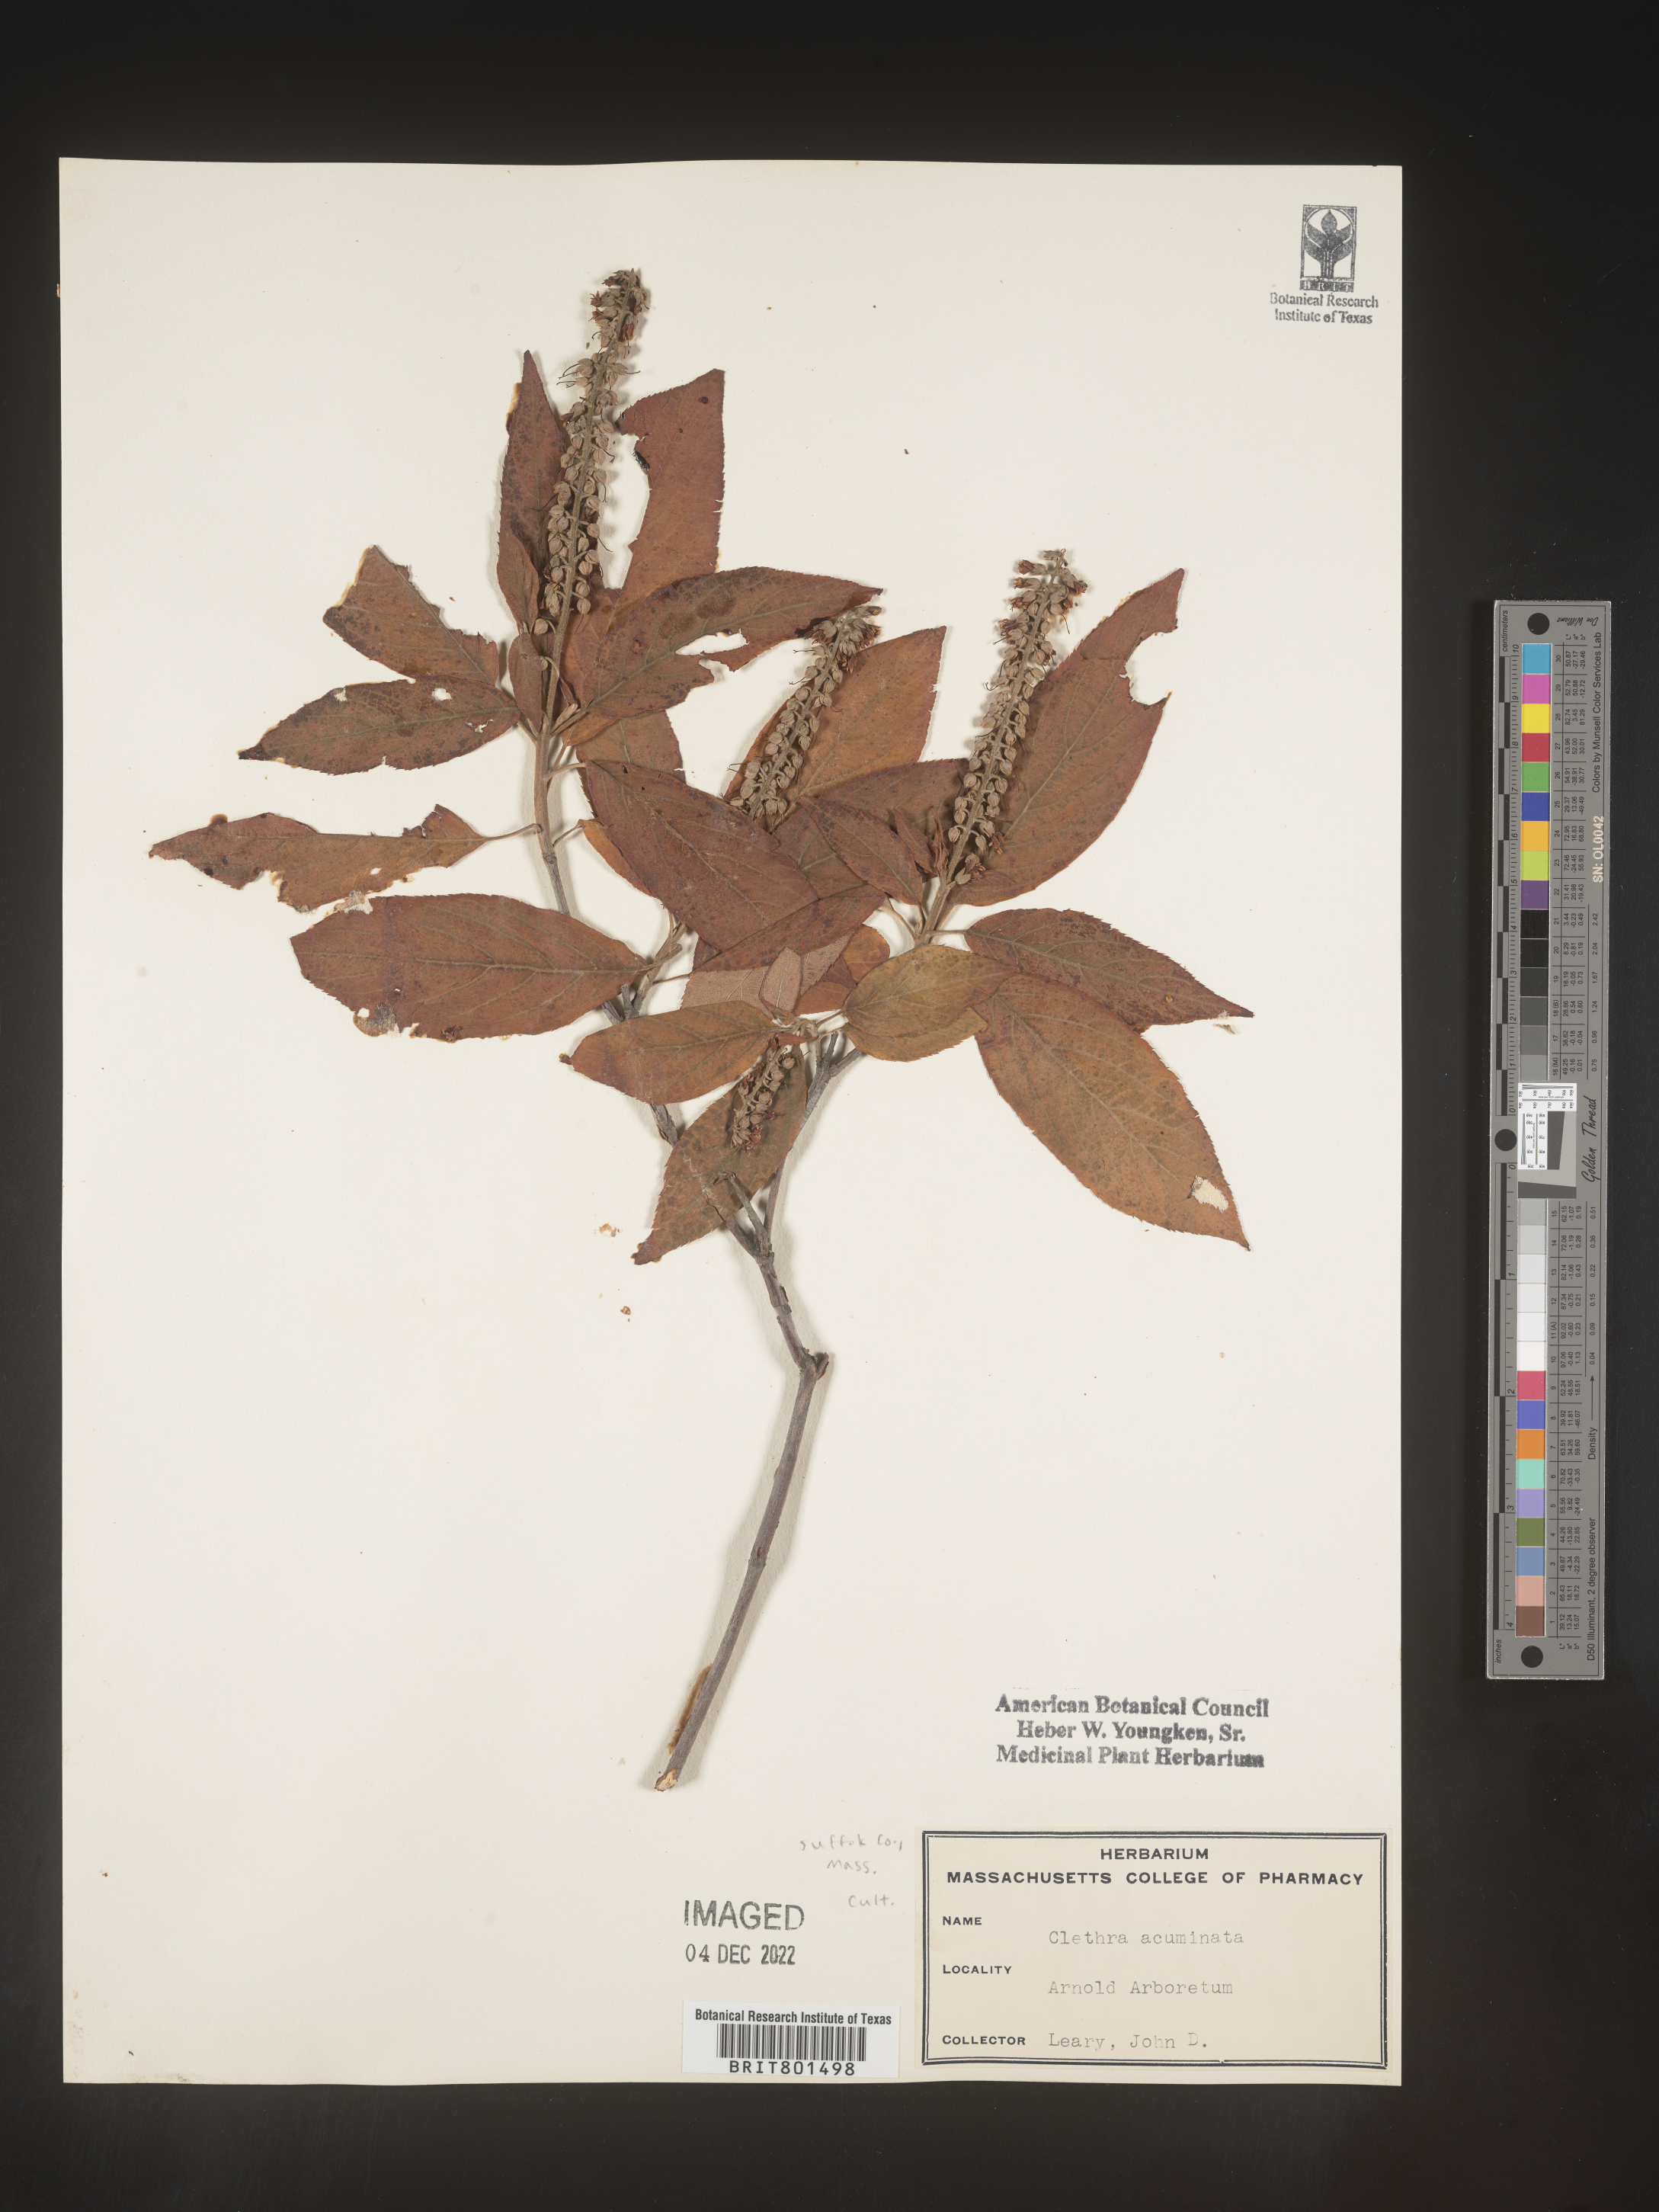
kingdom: Plantae
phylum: Tracheophyta
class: Magnoliopsida
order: Ericales
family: Clethraceae
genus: Clethra
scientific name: Clethra
